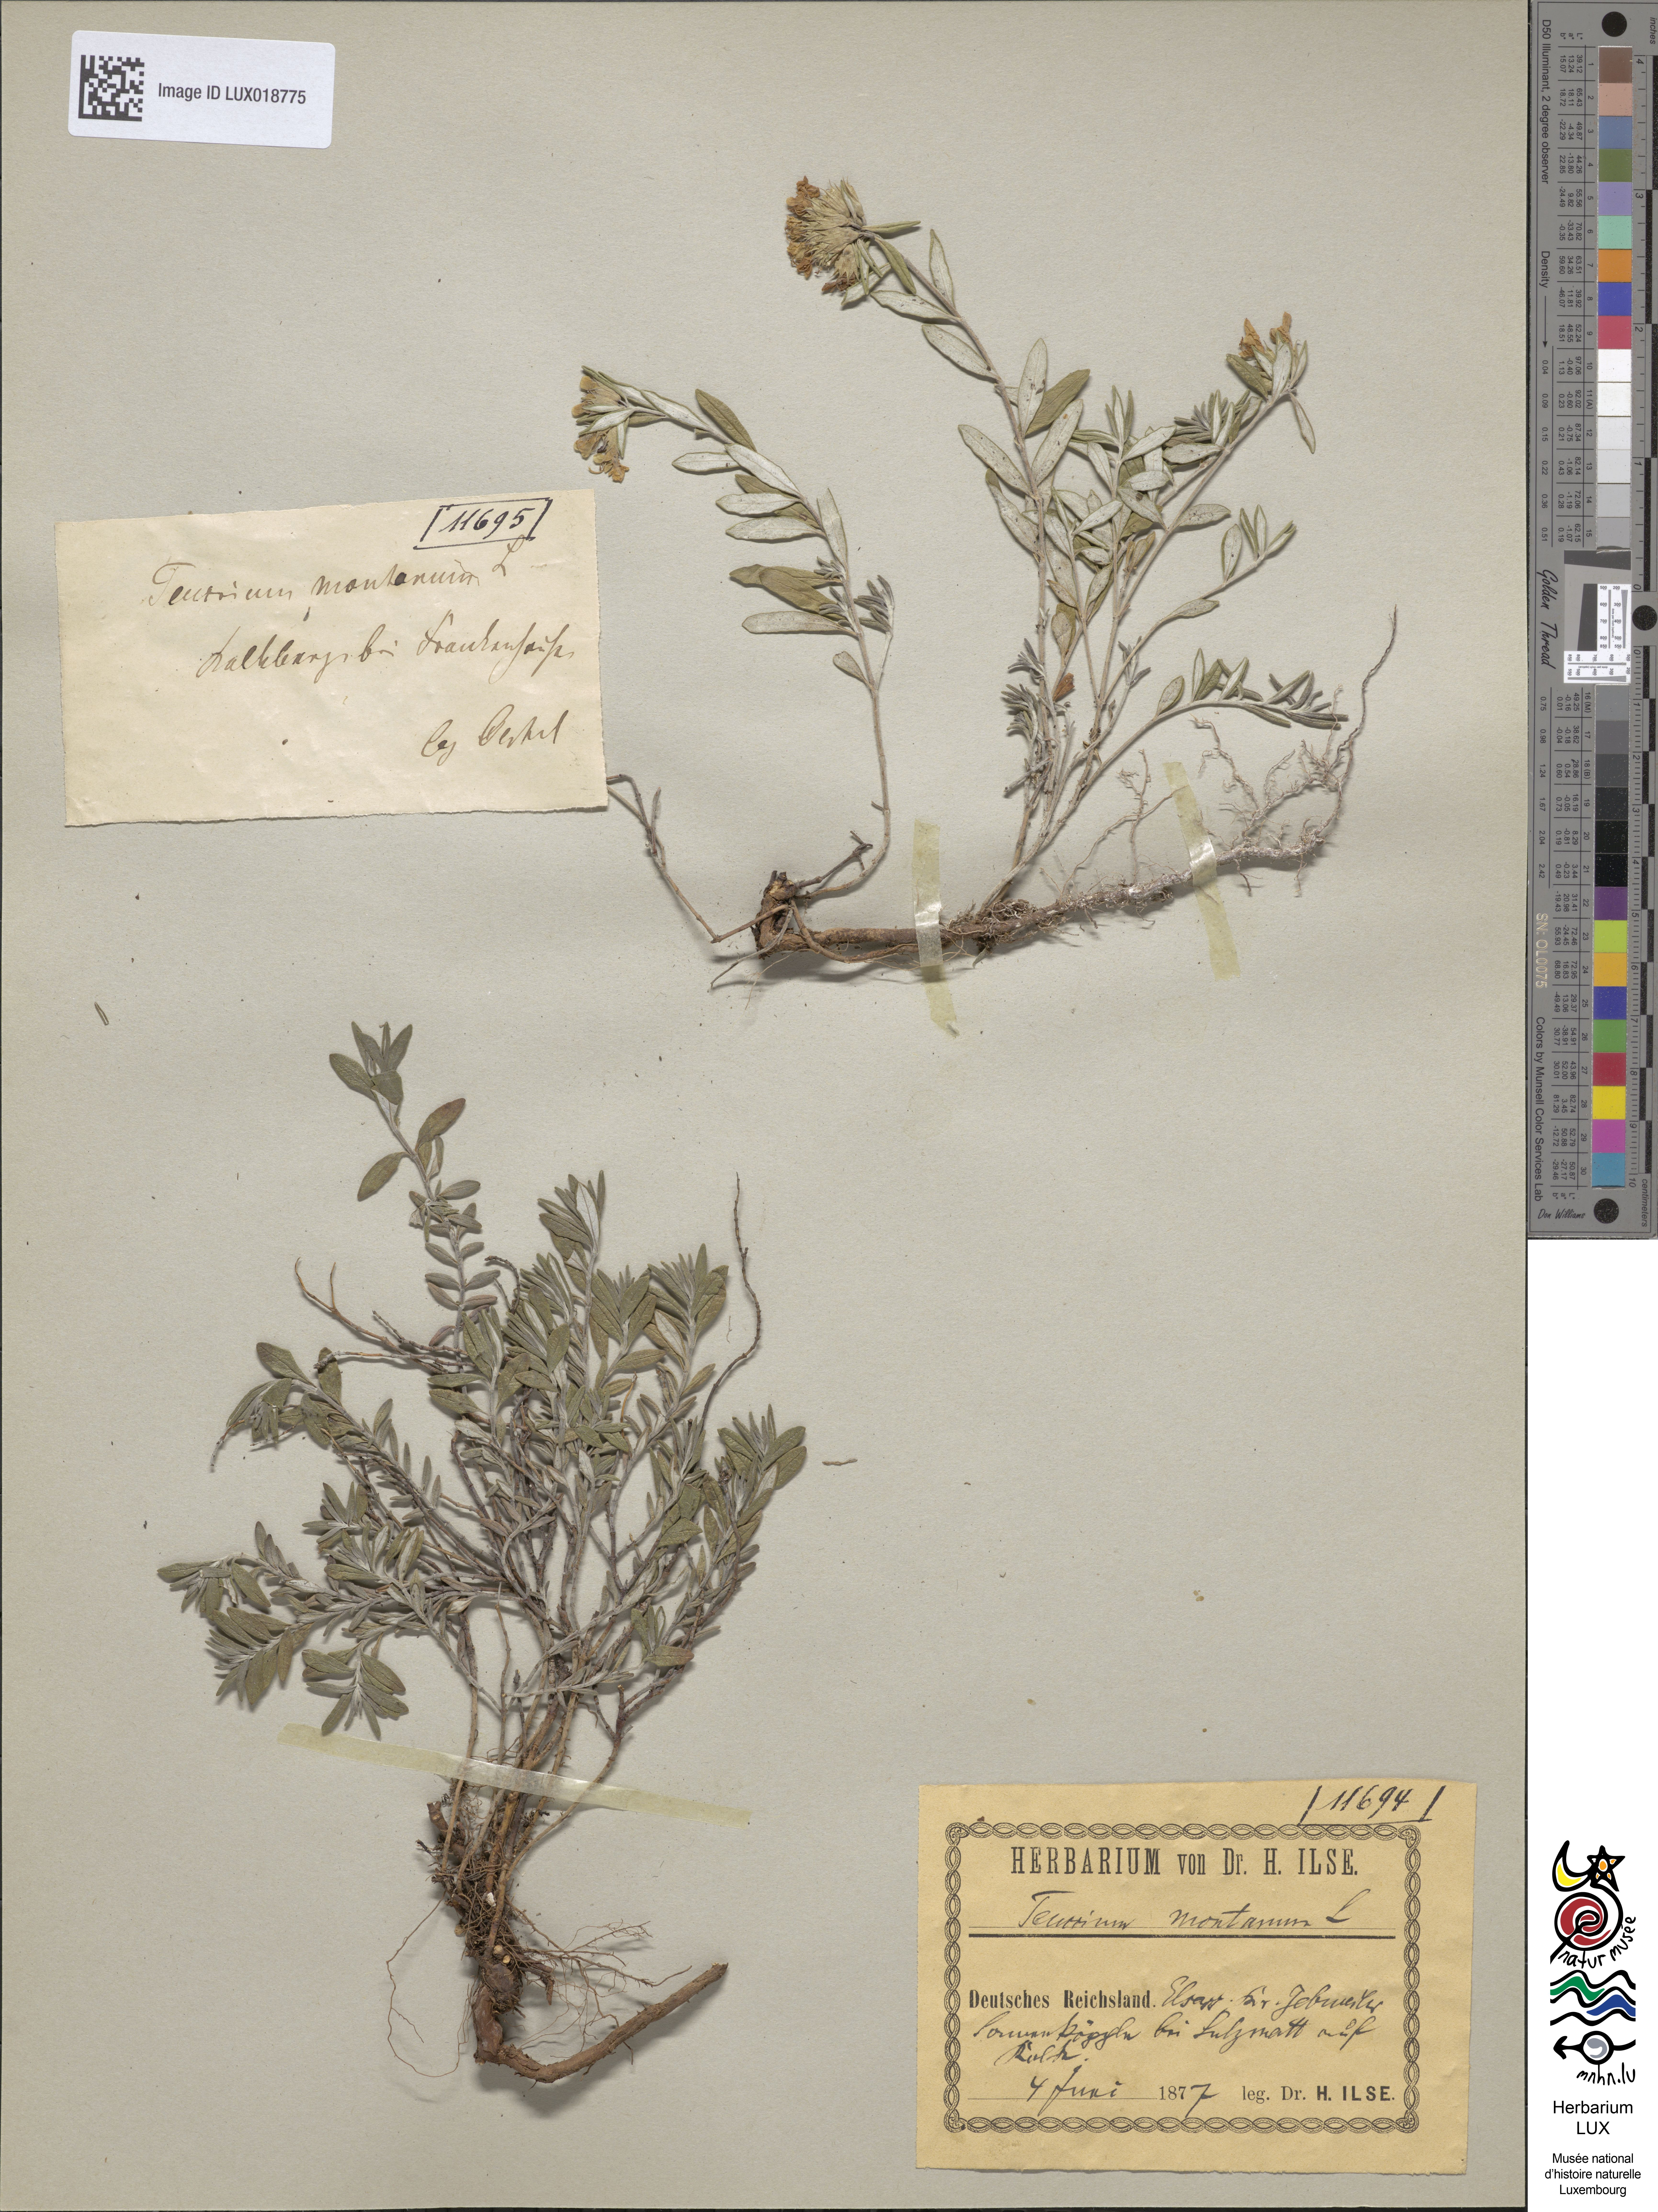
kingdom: Plantae
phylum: Tracheophyta
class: Magnoliopsida
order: Lamiales
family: Lamiaceae
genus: Teucrium
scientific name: Teucrium montanum
